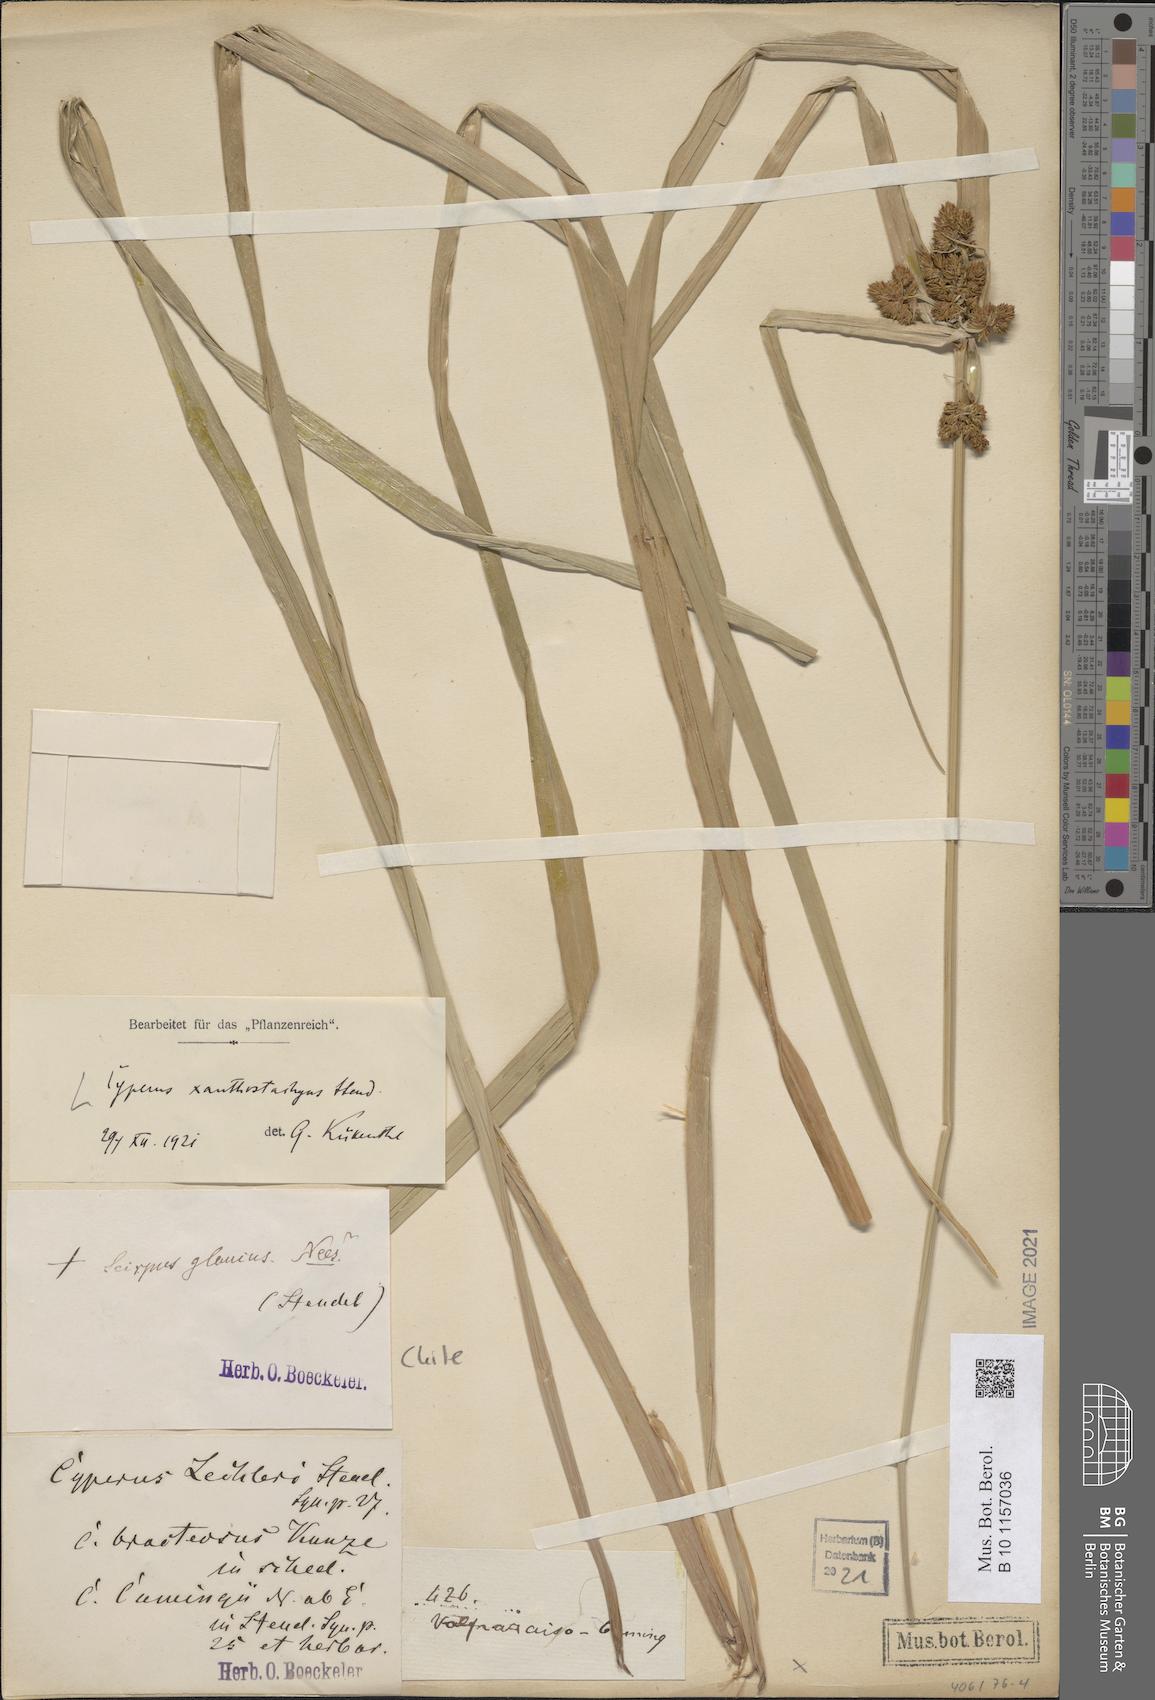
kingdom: Plantae
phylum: Tracheophyta
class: Liliopsida
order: Poales
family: Cyperaceae
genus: Cyperus
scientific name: Cyperus xanthostachyus
